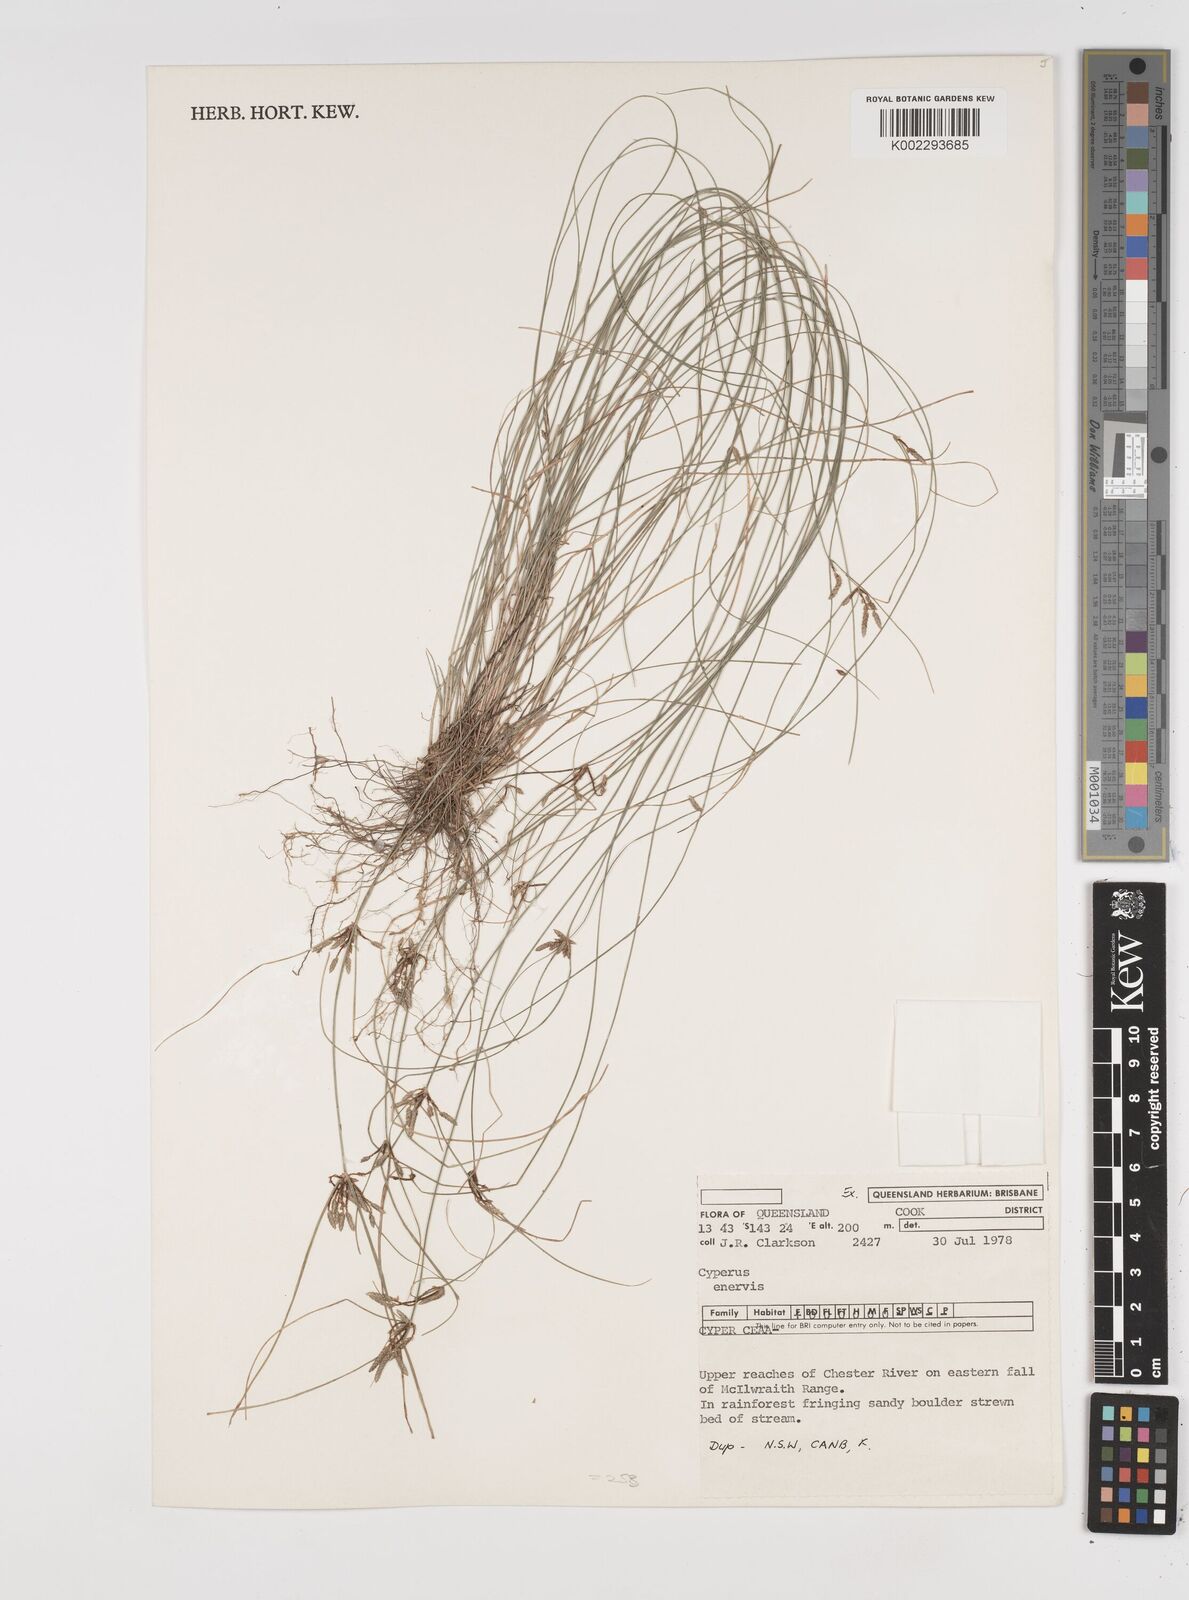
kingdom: Plantae
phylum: Tracheophyta
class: Liliopsida
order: Poales
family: Cyperaceae
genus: Cyperus
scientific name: Cyperus enervis
